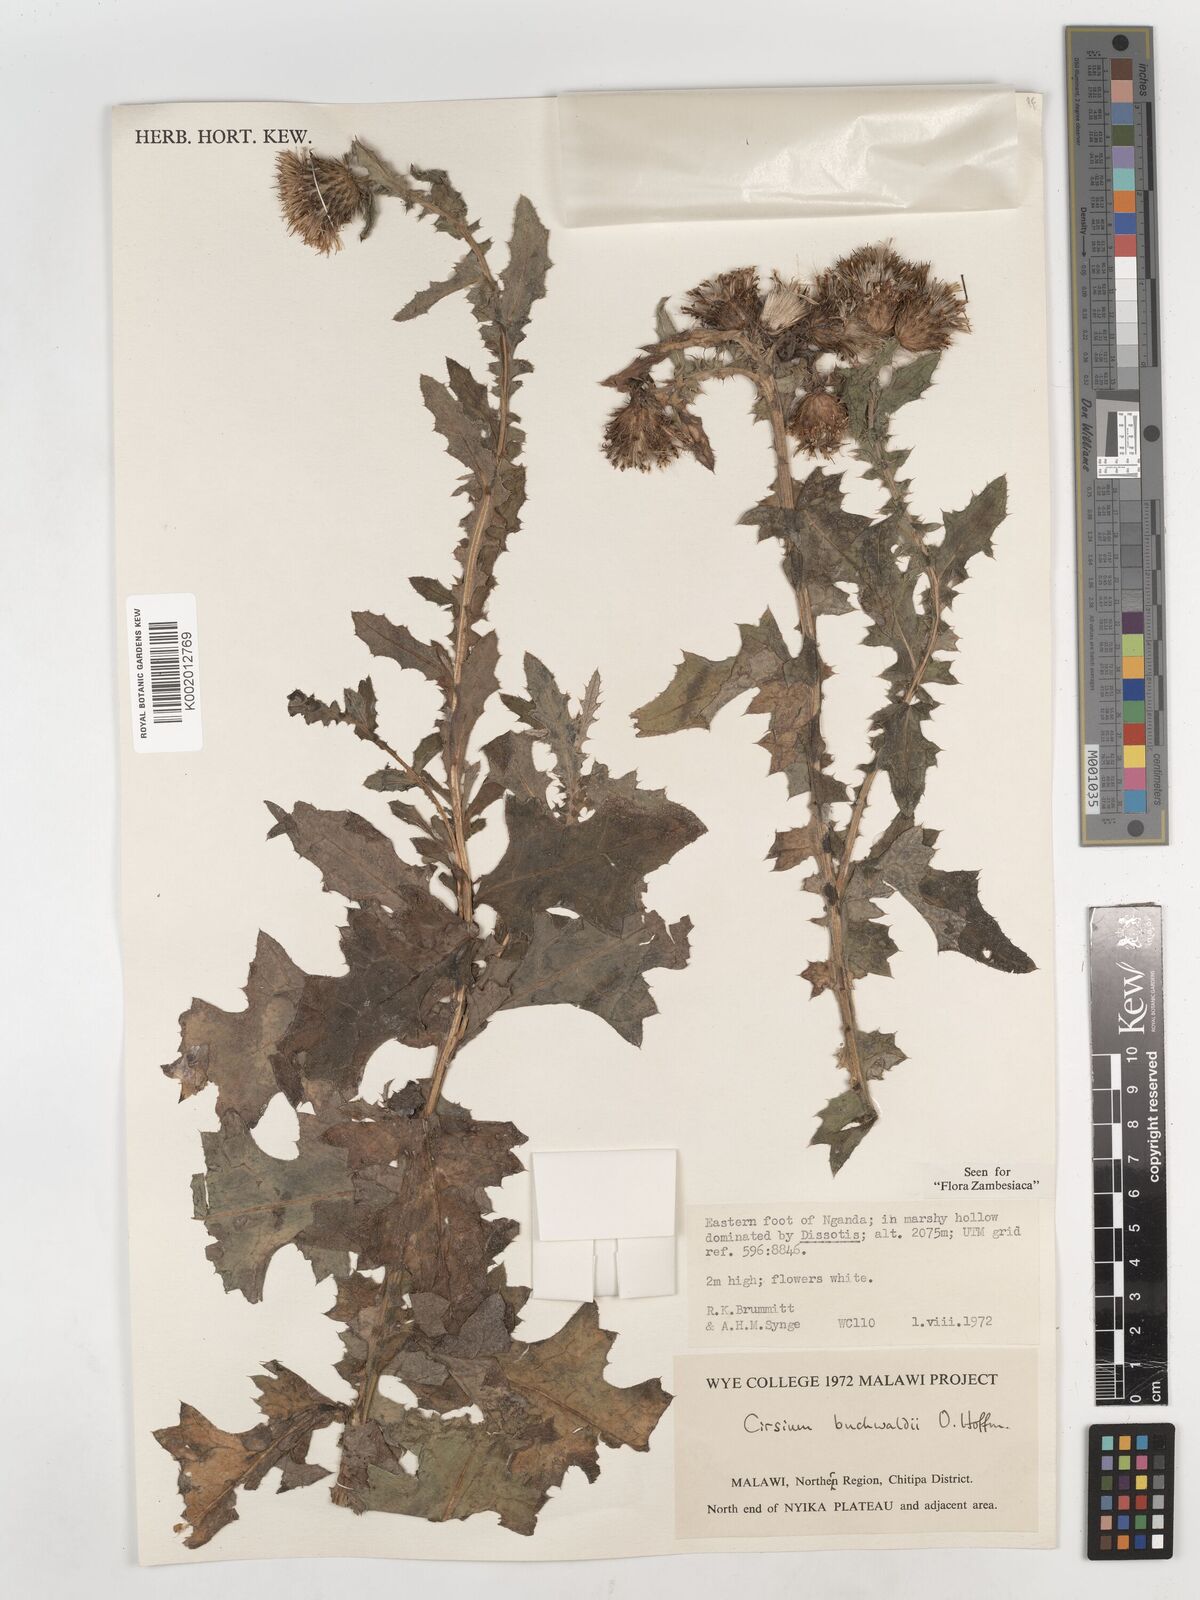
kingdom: Plantae
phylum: Tracheophyta
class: Magnoliopsida
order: Asterales
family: Asteraceae
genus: Cirsium
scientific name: Cirsium buchwaldii
